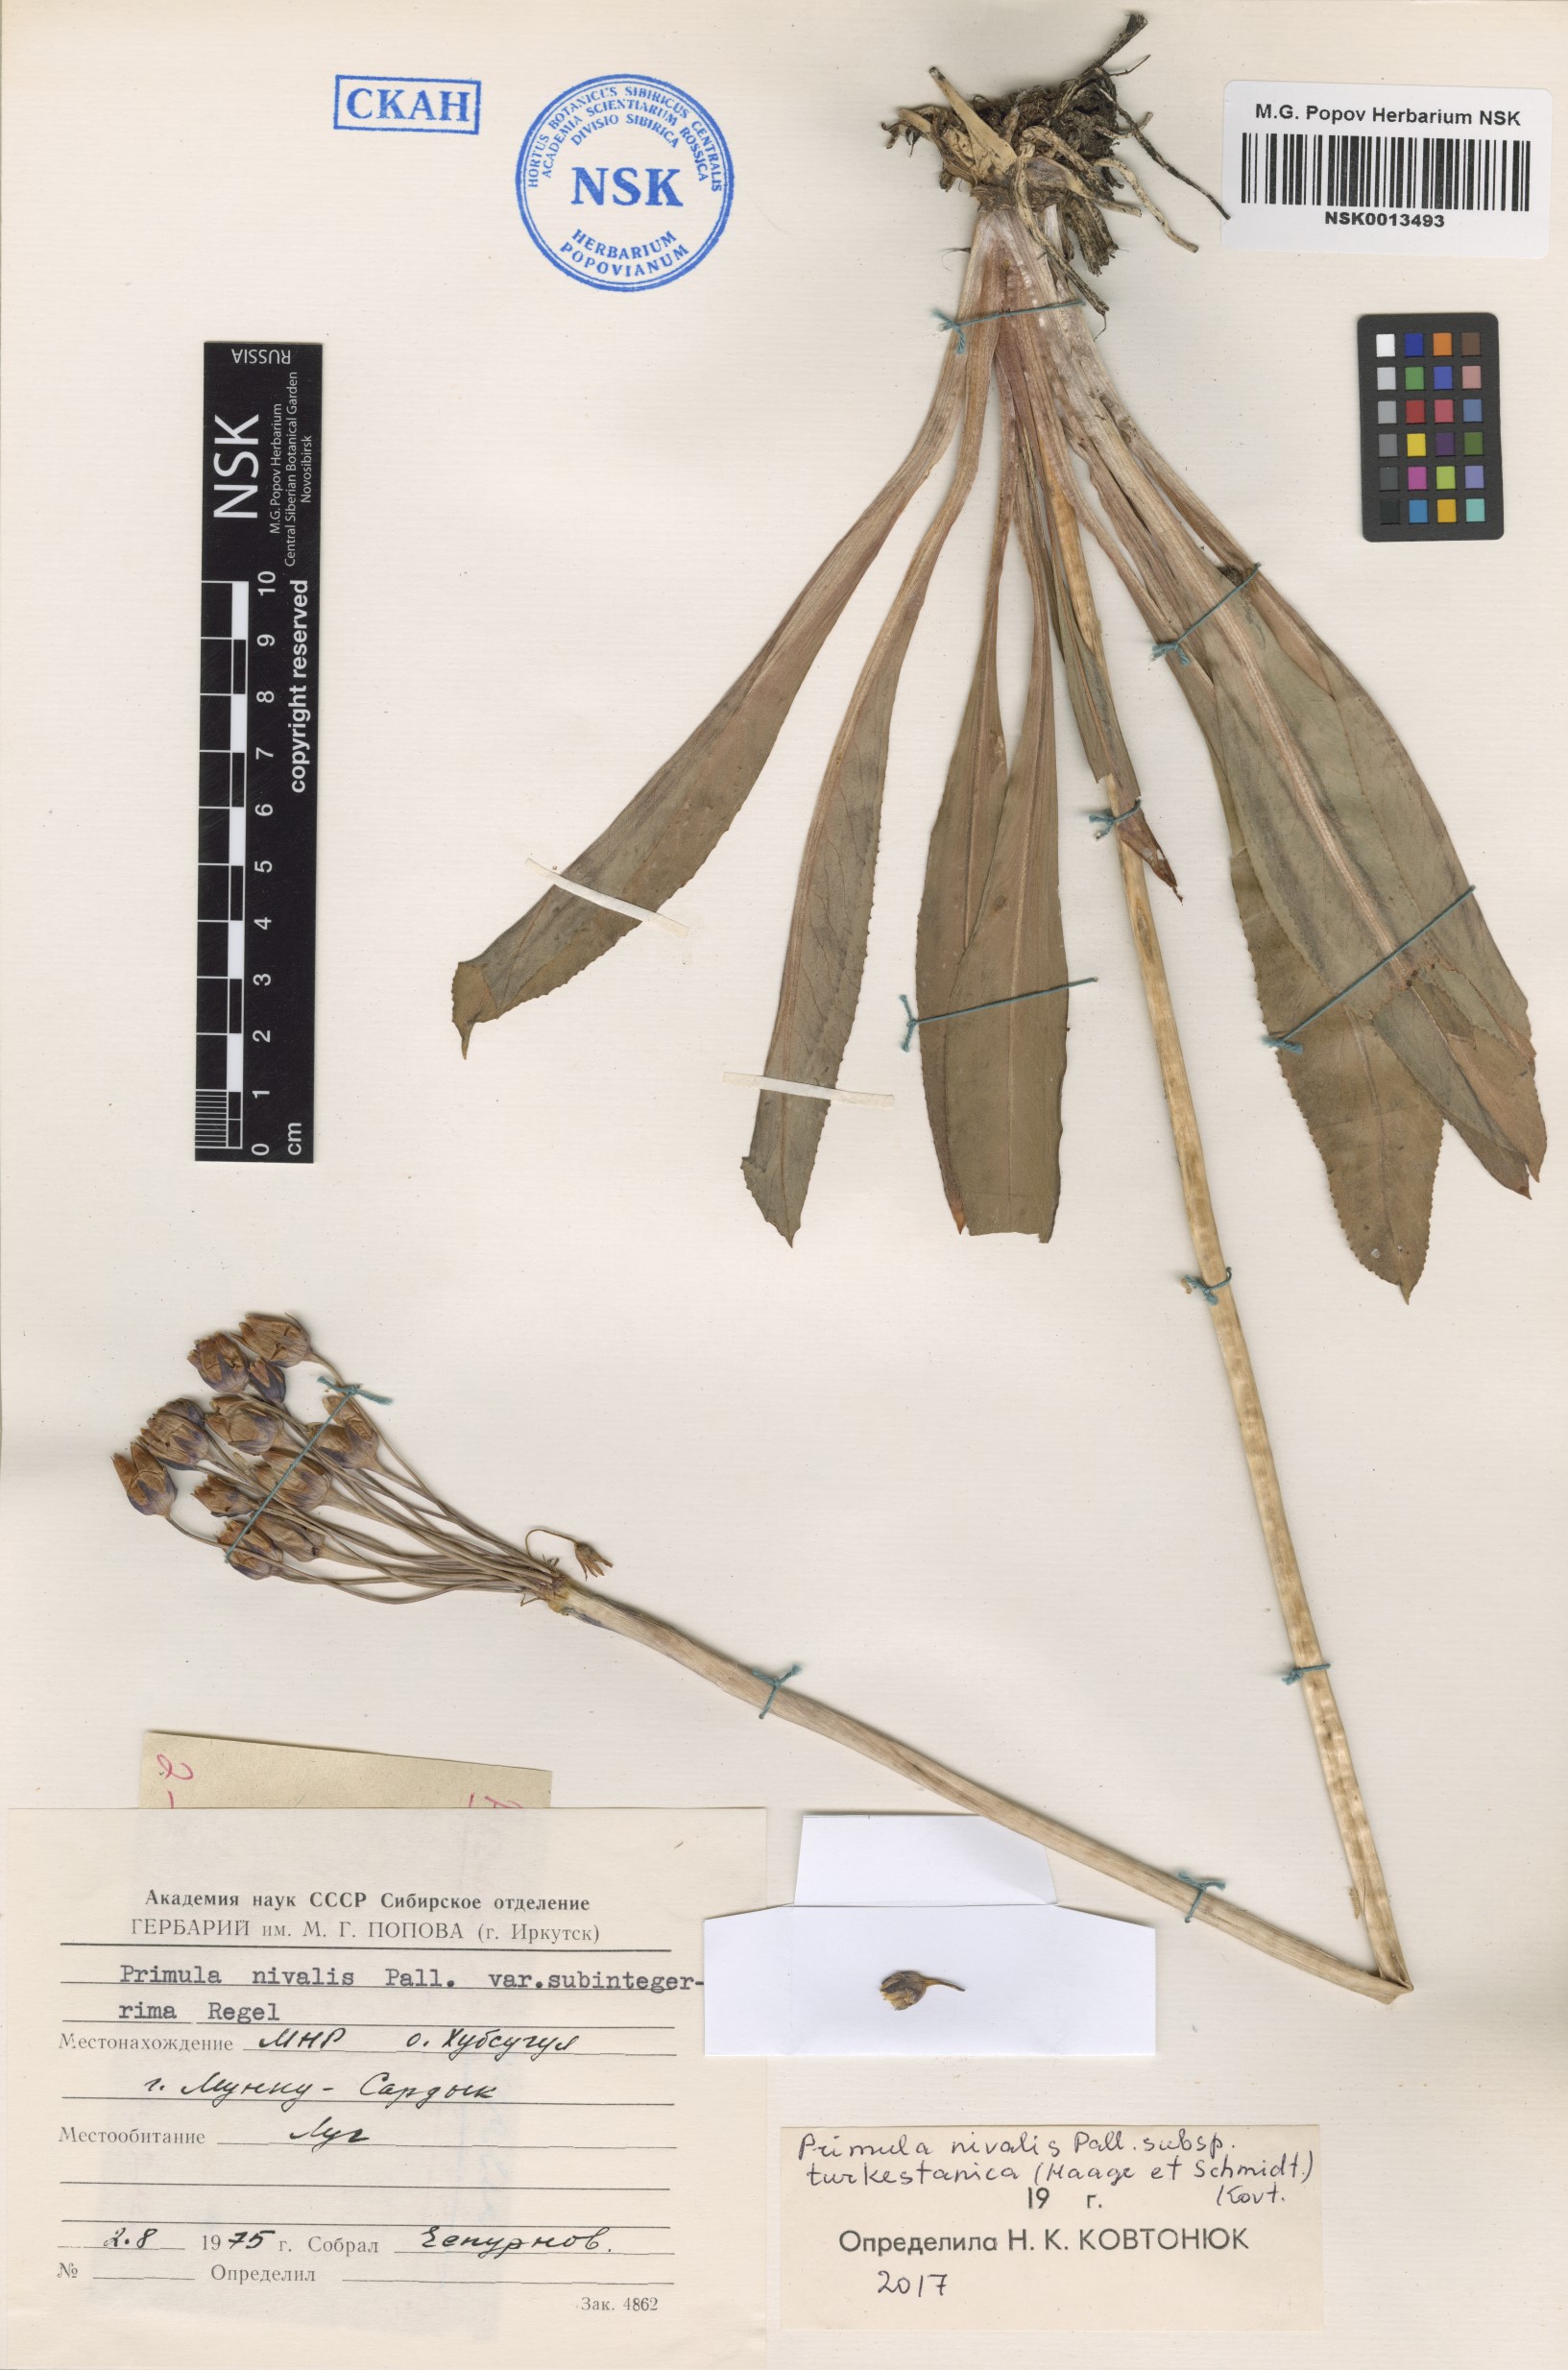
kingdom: Plantae
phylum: Tracheophyta
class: Magnoliopsida
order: Ericales
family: Primulaceae
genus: Primula
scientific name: Primula nivalis
